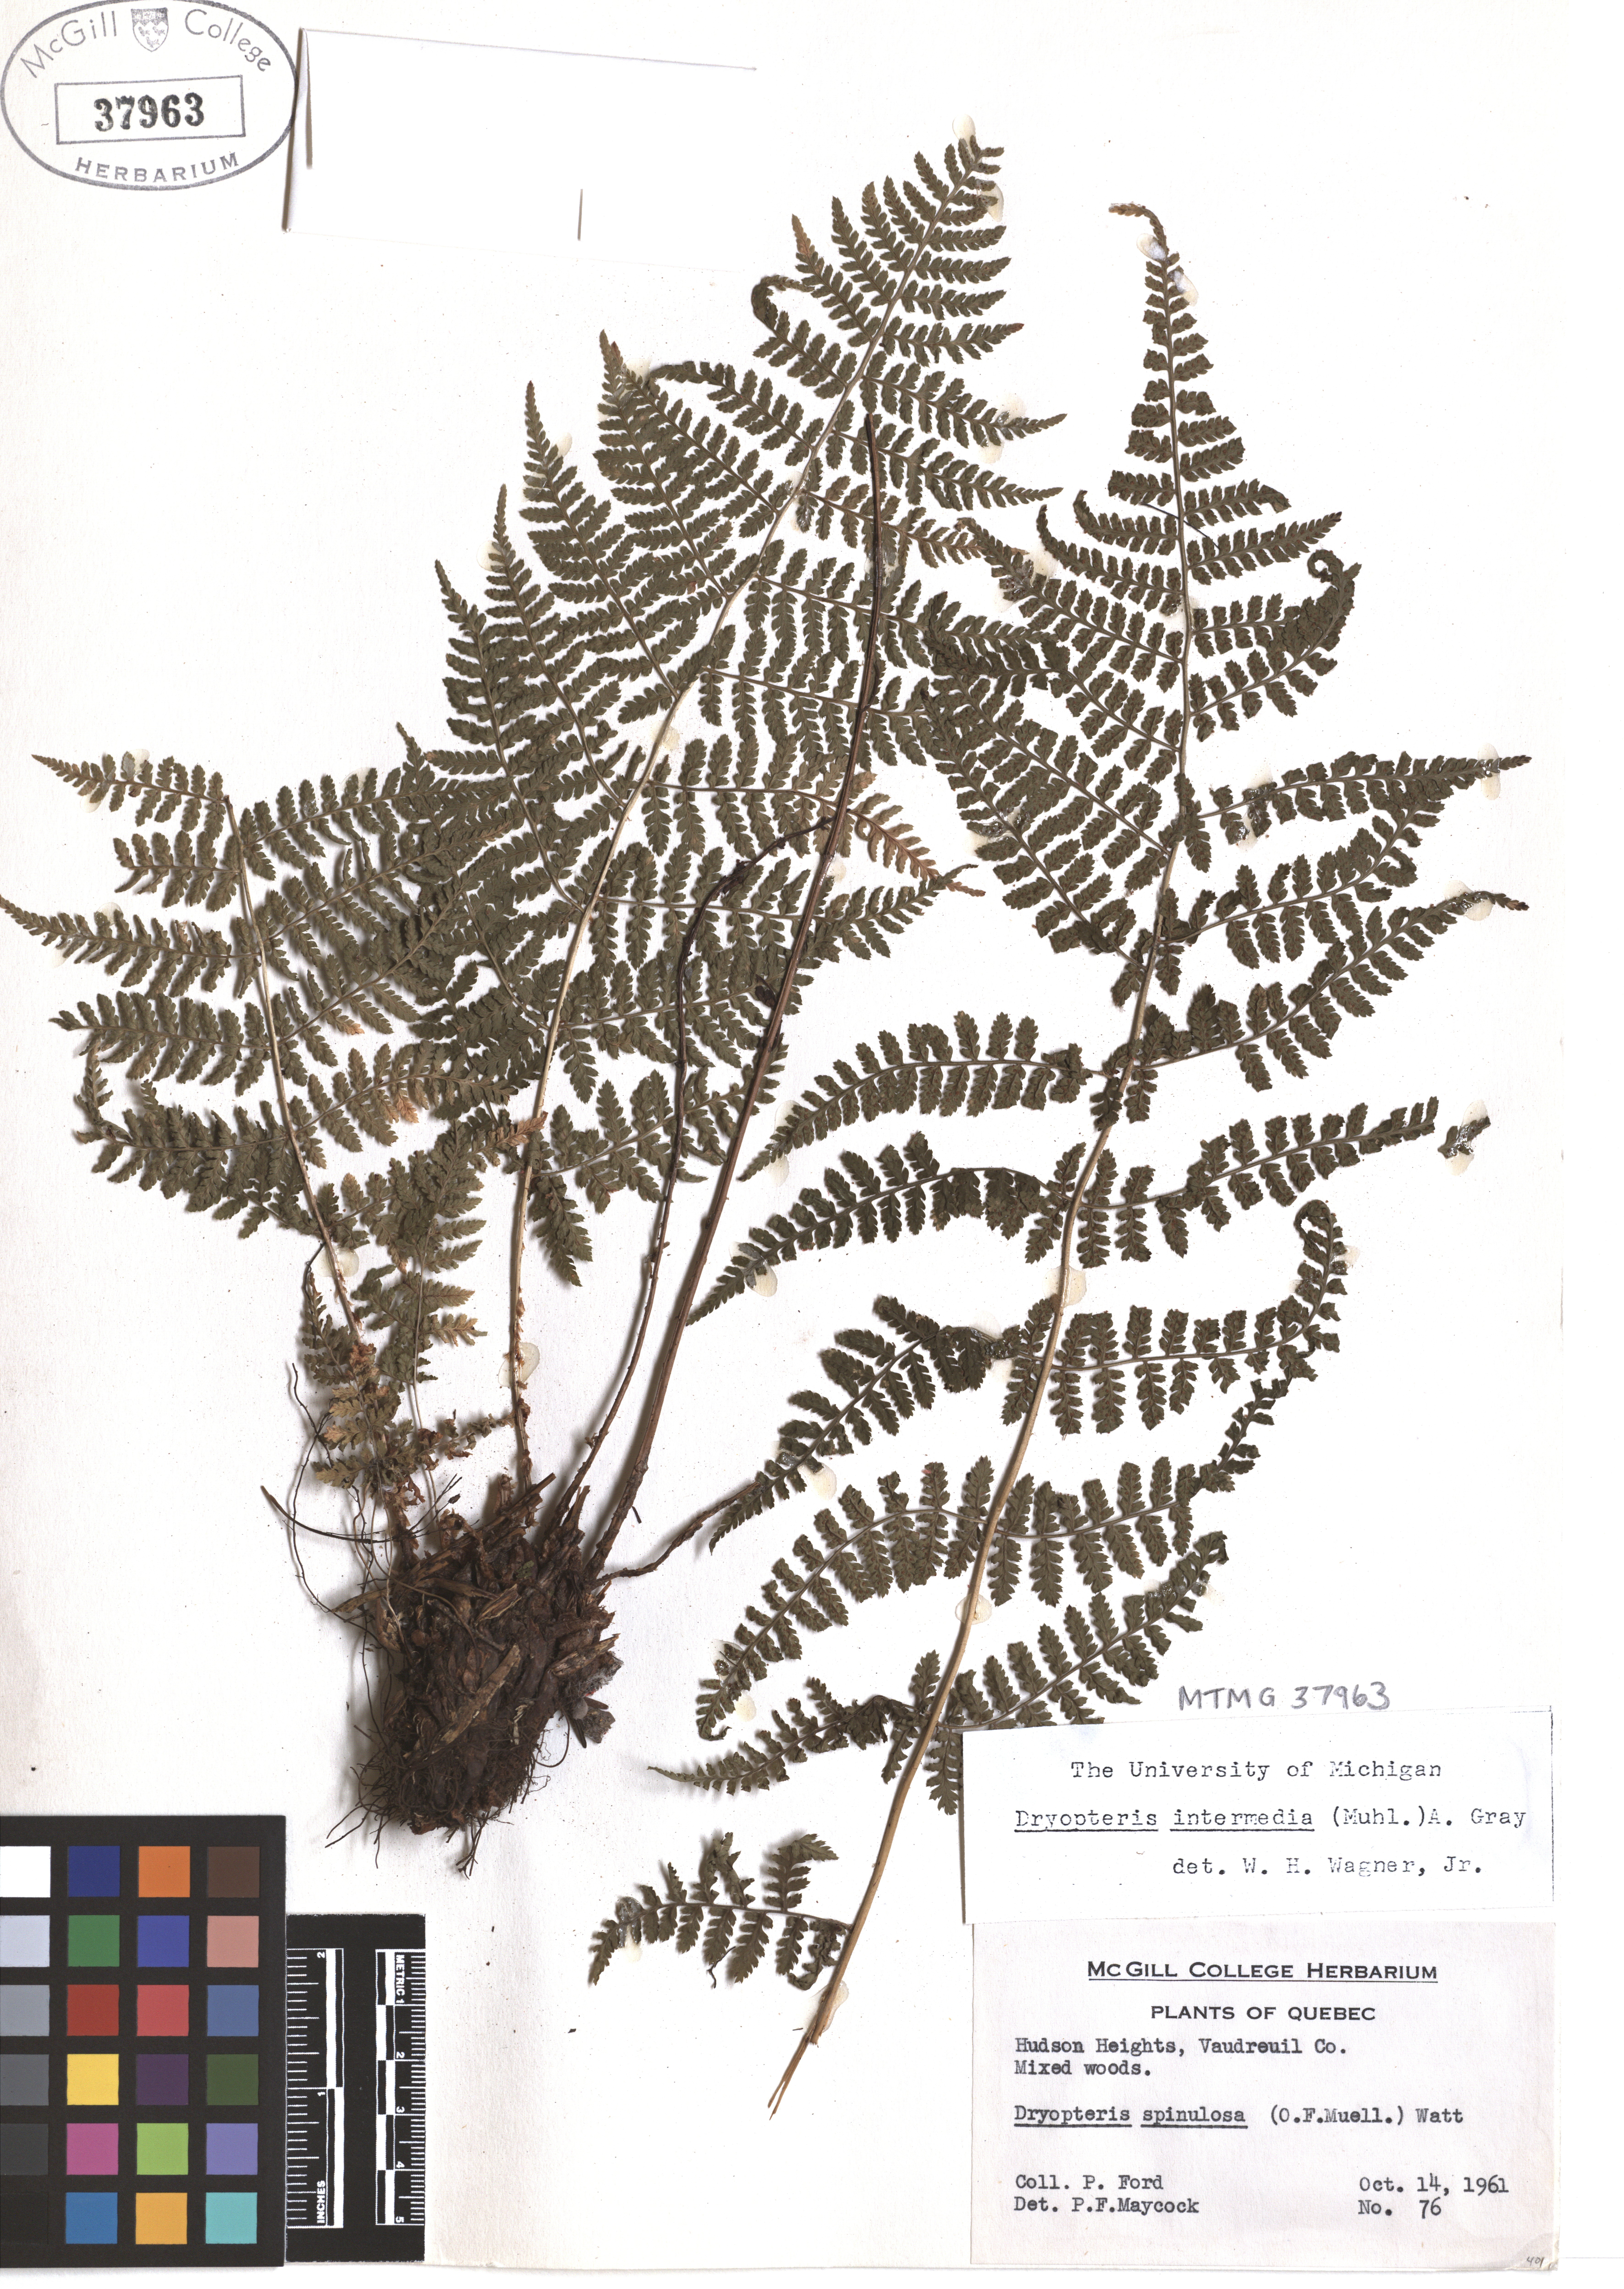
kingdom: Plantae
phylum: Tracheophyta
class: Polypodiopsida
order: Polypodiales
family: Dryopteridaceae
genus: Dryopteris
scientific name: Dryopteris intermedia
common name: Evergreen wood fern
